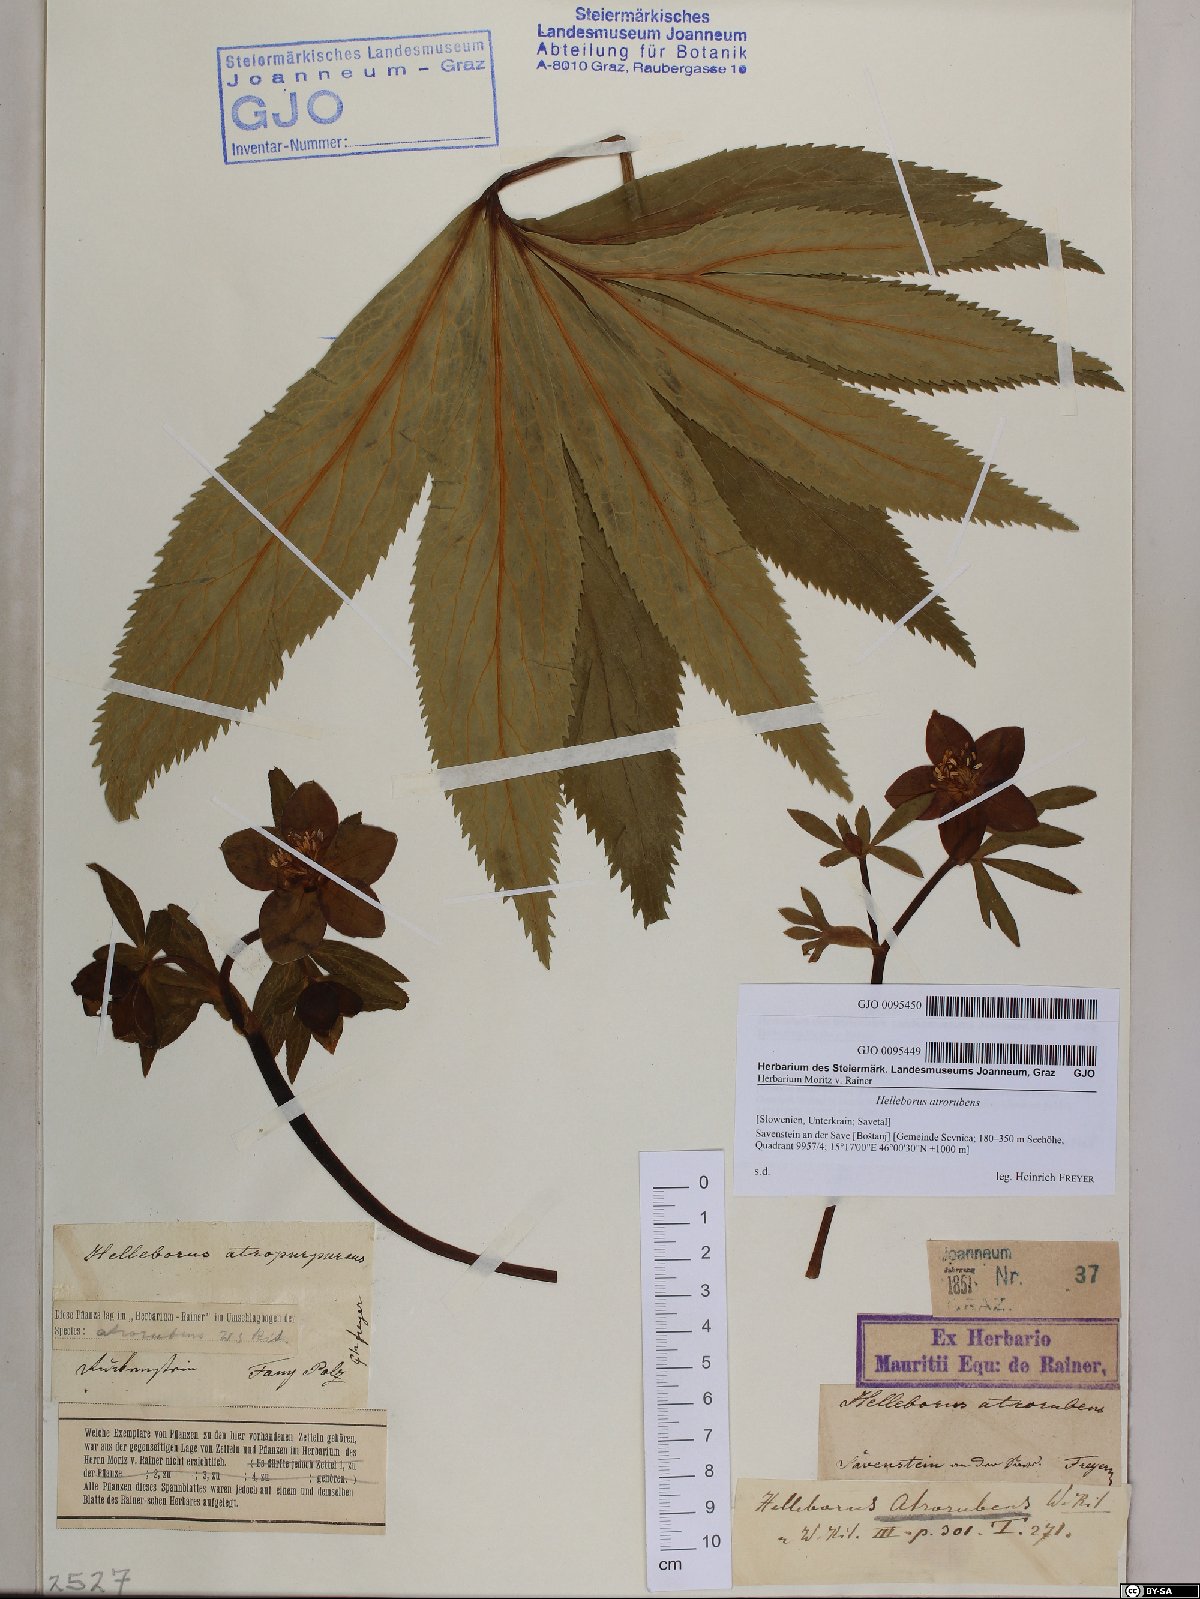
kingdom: Plantae
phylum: Tracheophyta
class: Magnoliopsida
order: Ranunculales
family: Ranunculaceae
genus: Helleborus
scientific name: Helleborus dumetorum
